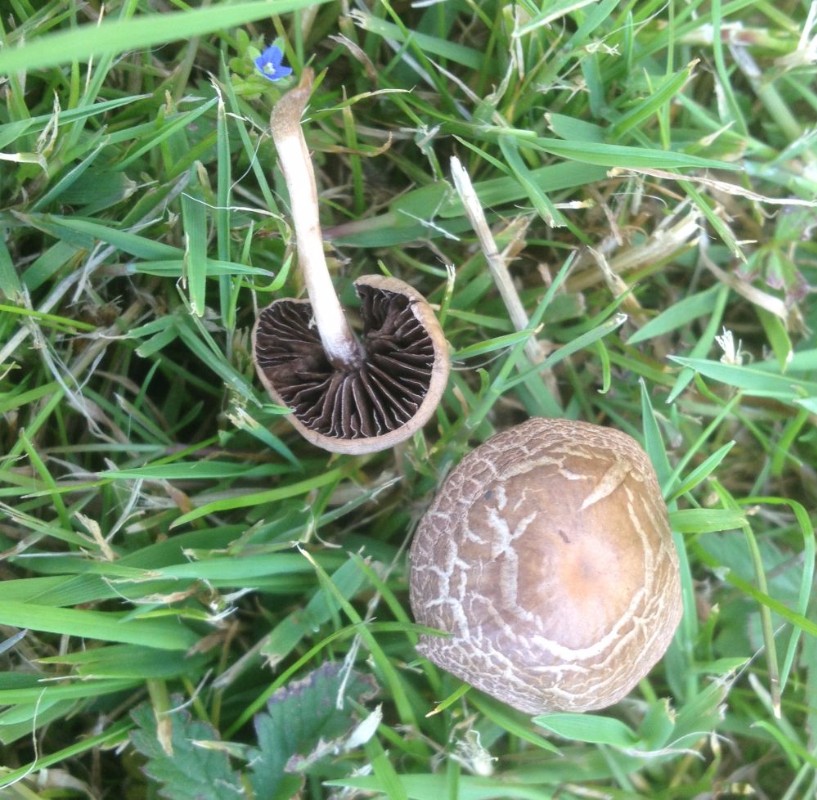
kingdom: Fungi
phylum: Basidiomycota
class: Agaricomycetes
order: Agaricales
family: Bolbitiaceae
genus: Panaeolina
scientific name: Panaeolina foenisecii
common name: høslætsvamp
